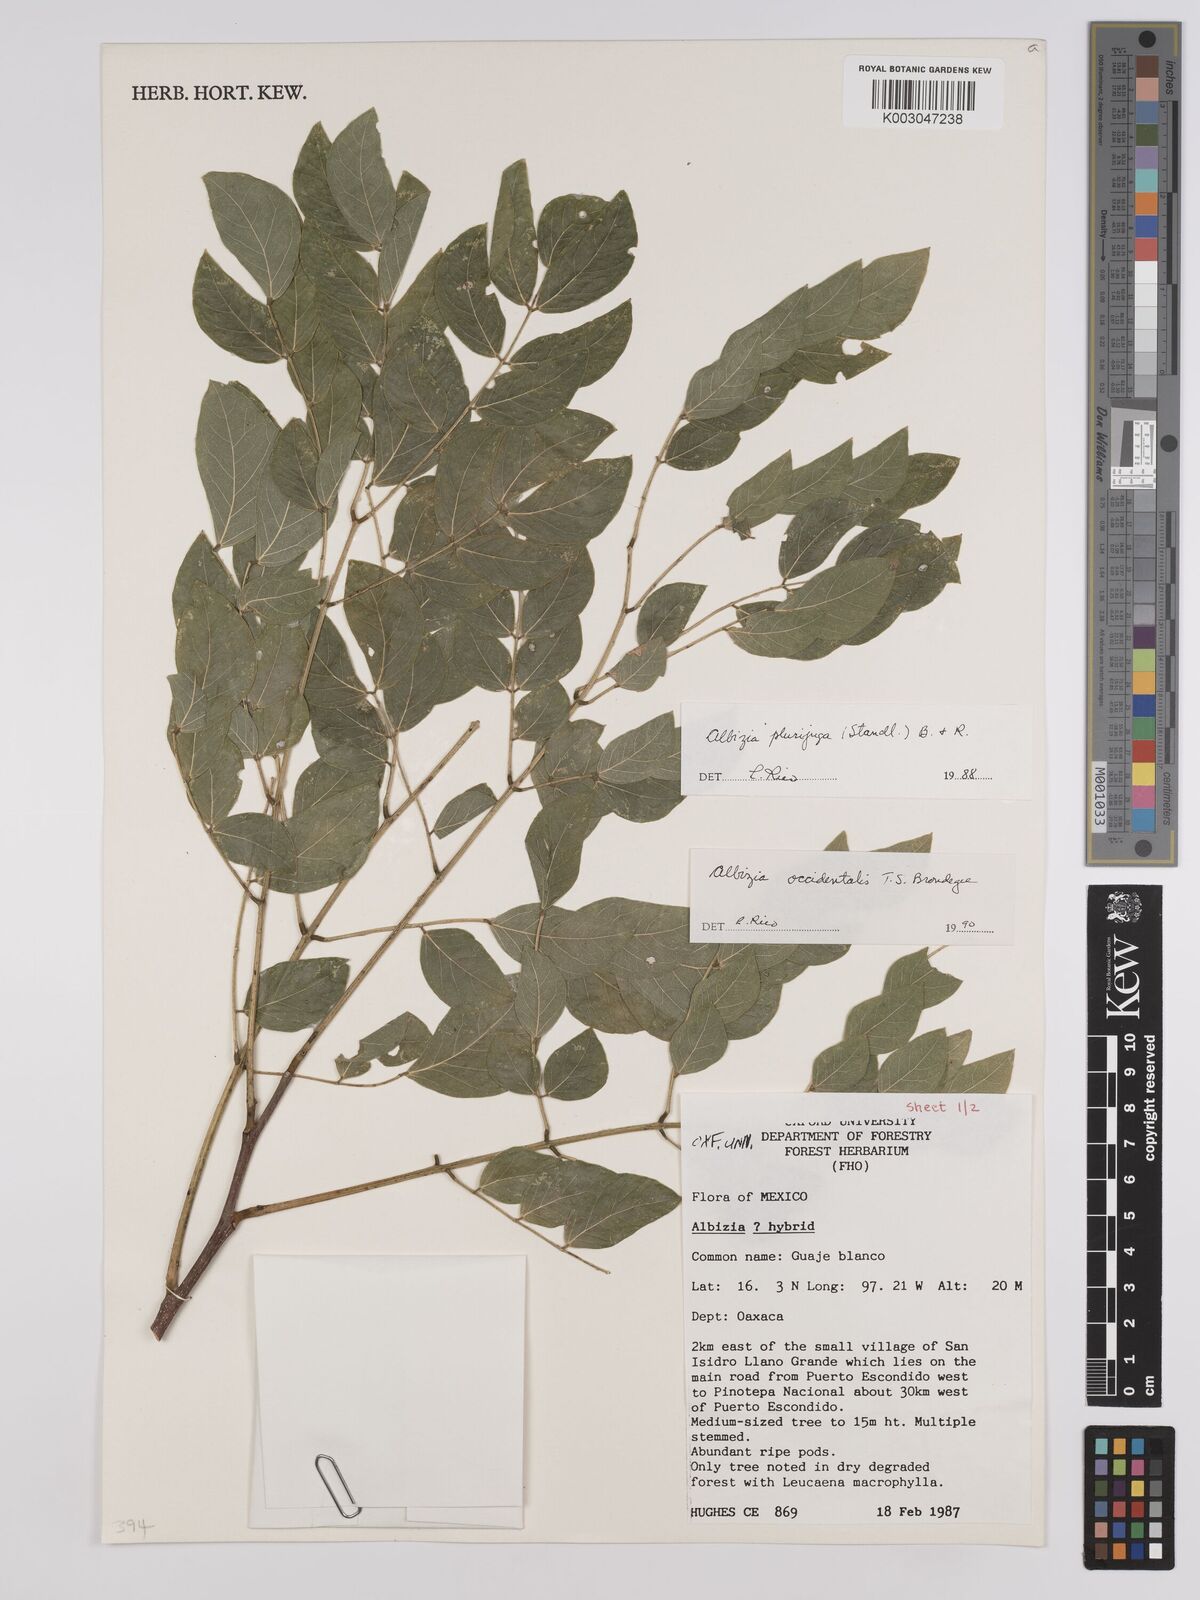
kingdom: Plantae
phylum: Tracheophyta
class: Magnoliopsida
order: Fabales
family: Fabaceae
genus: Albizia
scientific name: Albizia
